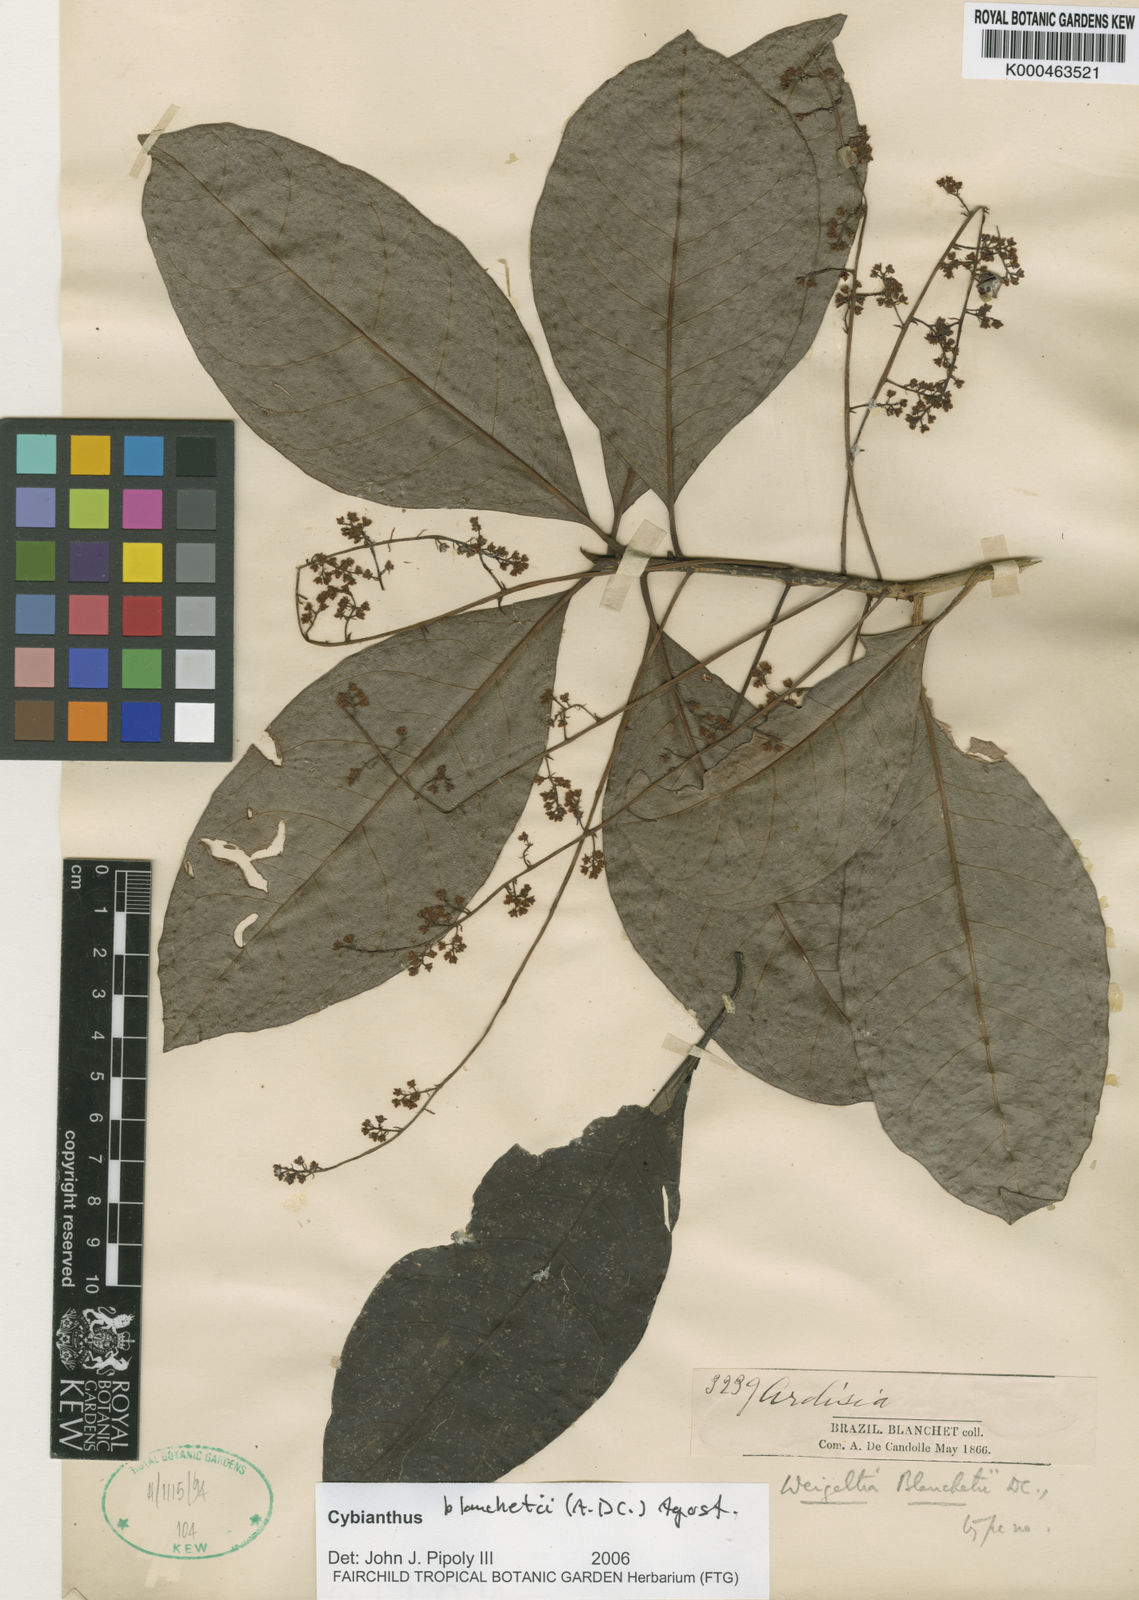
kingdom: Plantae
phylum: Tracheophyta
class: Magnoliopsida
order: Ericales
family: Primulaceae
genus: Cybianthus
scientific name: Cybianthus blanchetii
